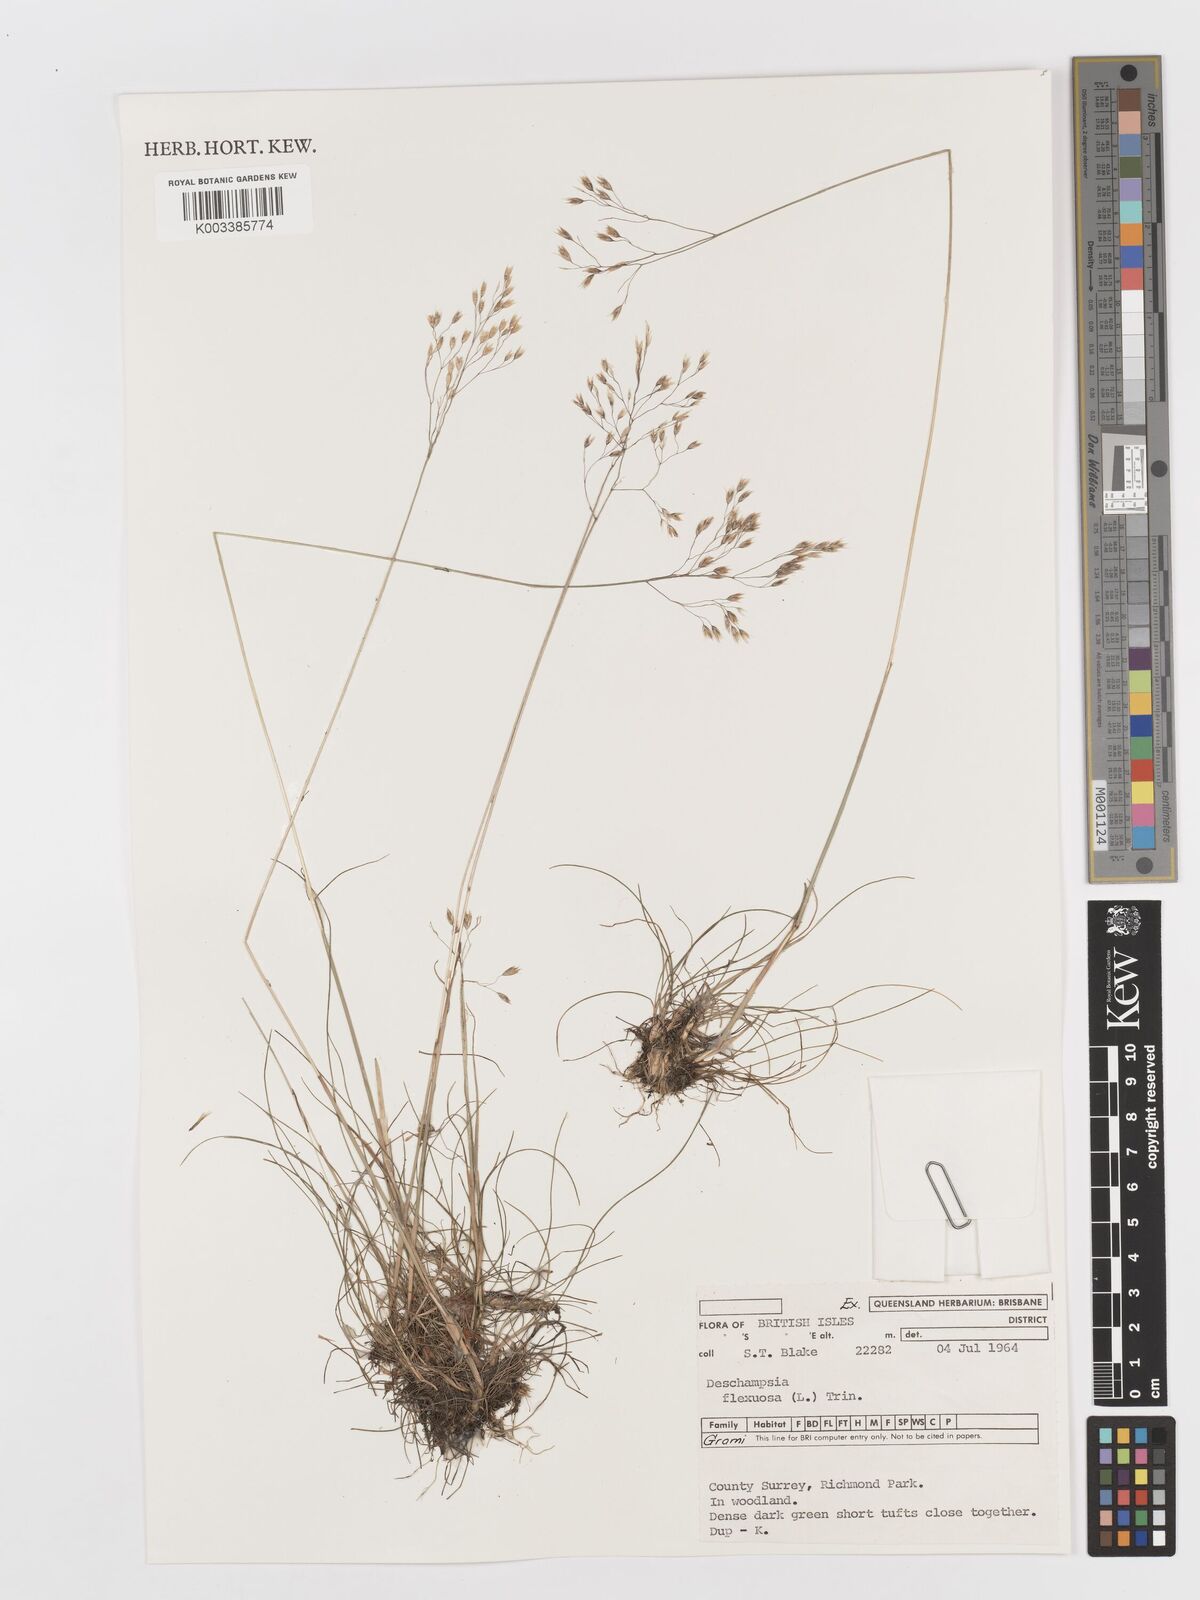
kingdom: Plantae
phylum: Tracheophyta
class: Liliopsida
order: Poales
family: Poaceae
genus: Avenella
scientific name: Avenella flexuosa
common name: Wavy hairgrass
